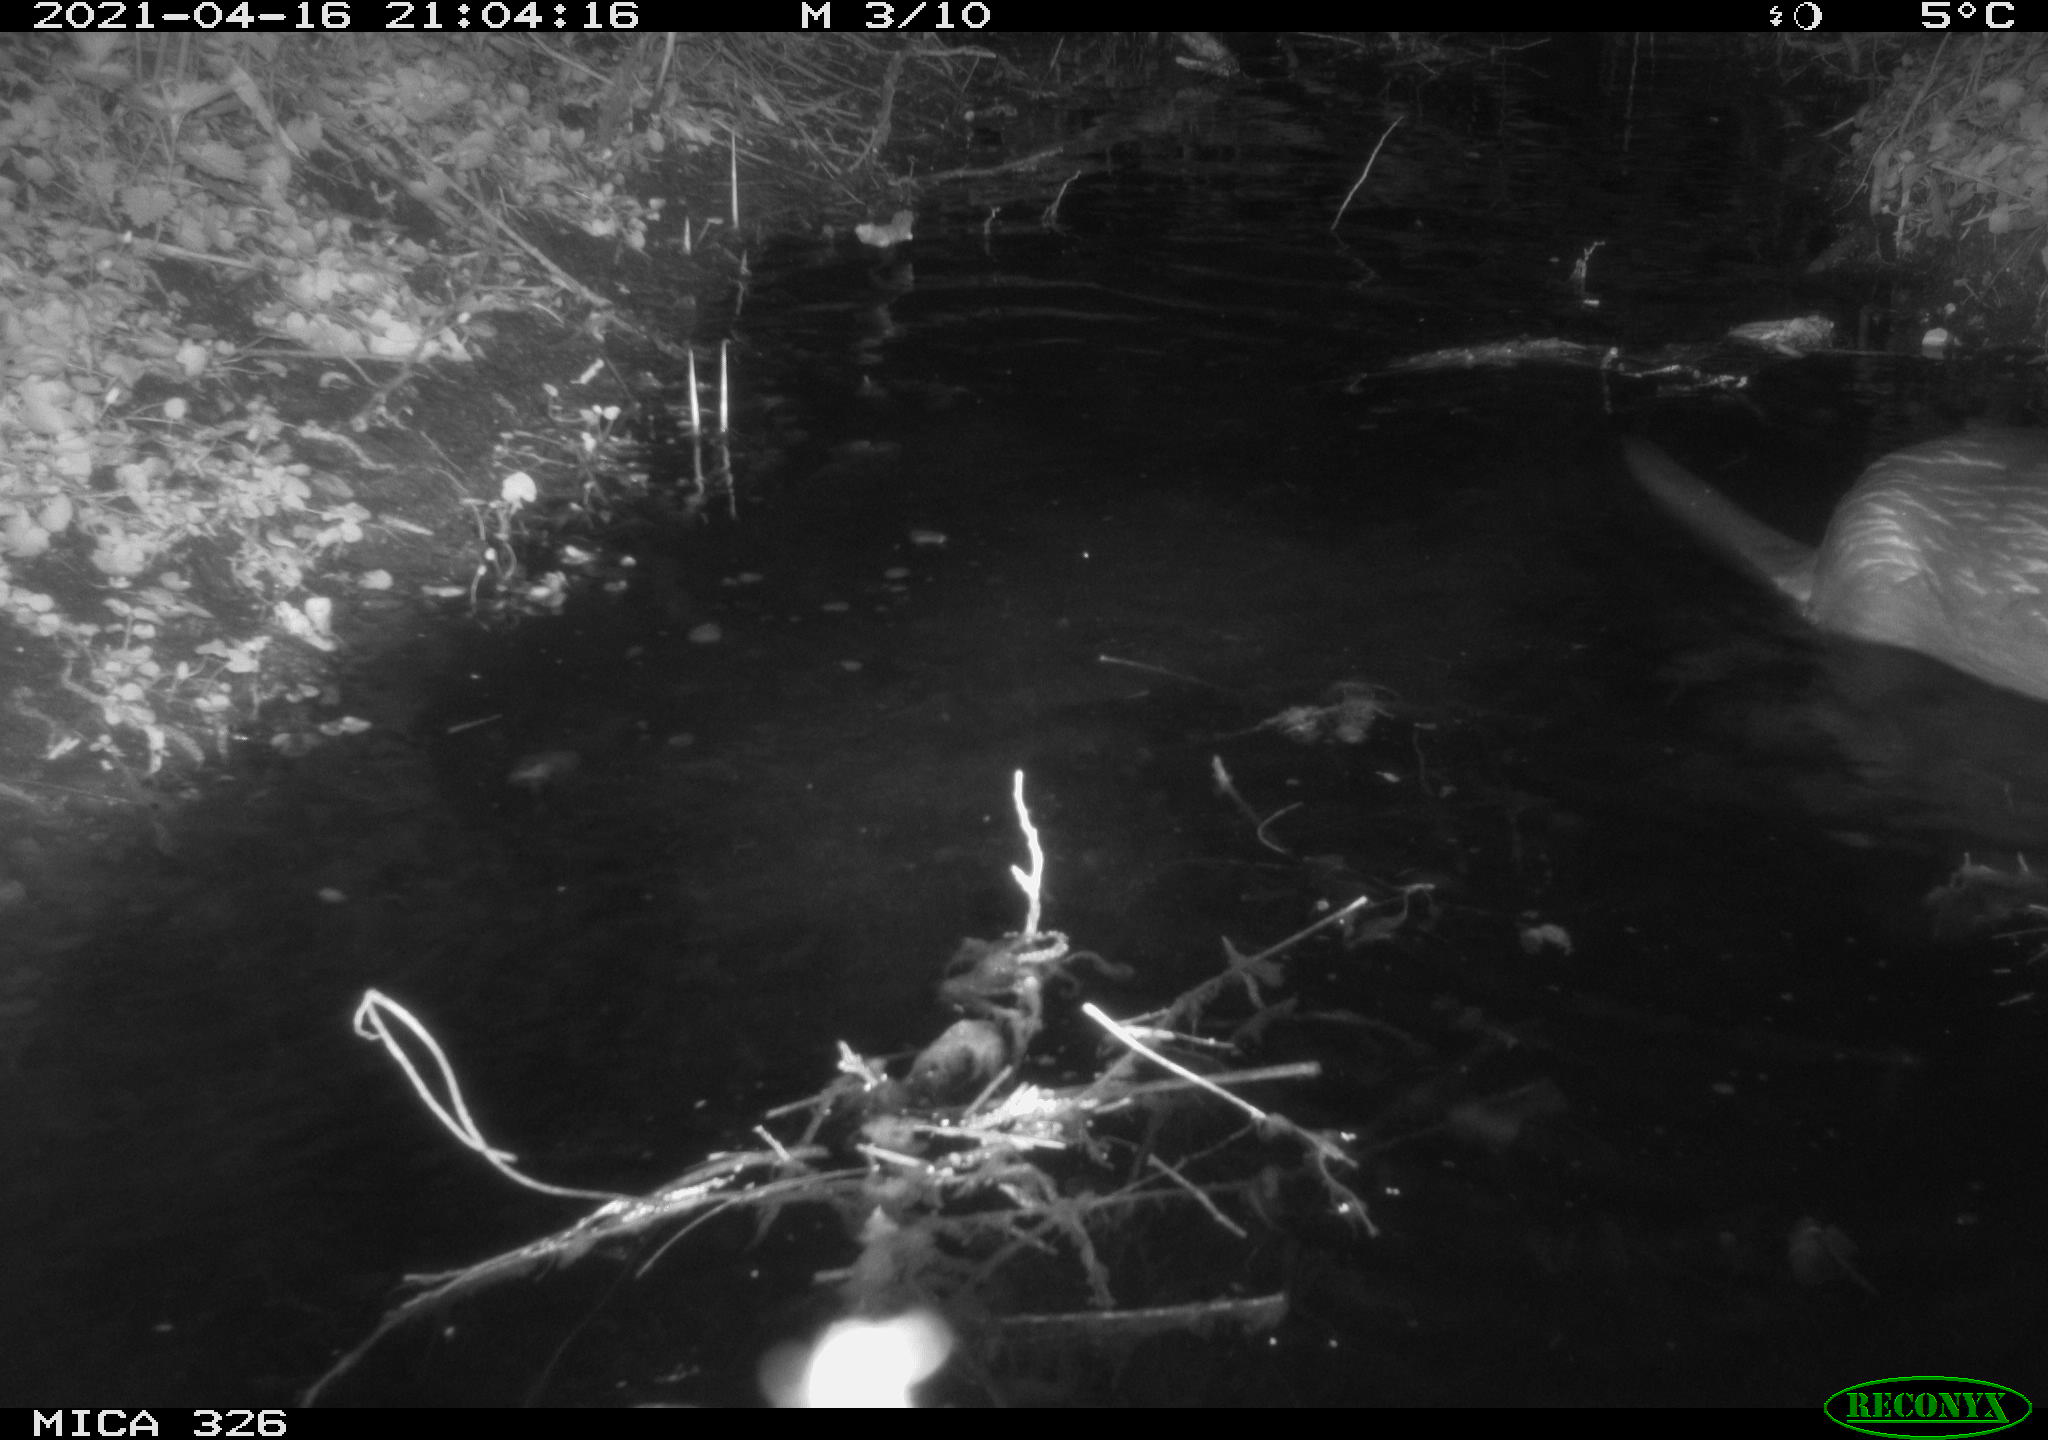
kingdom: Animalia
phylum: Chordata
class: Mammalia
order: Carnivora
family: Mustelidae
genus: Lutra
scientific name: Lutra lutra
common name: European otter
